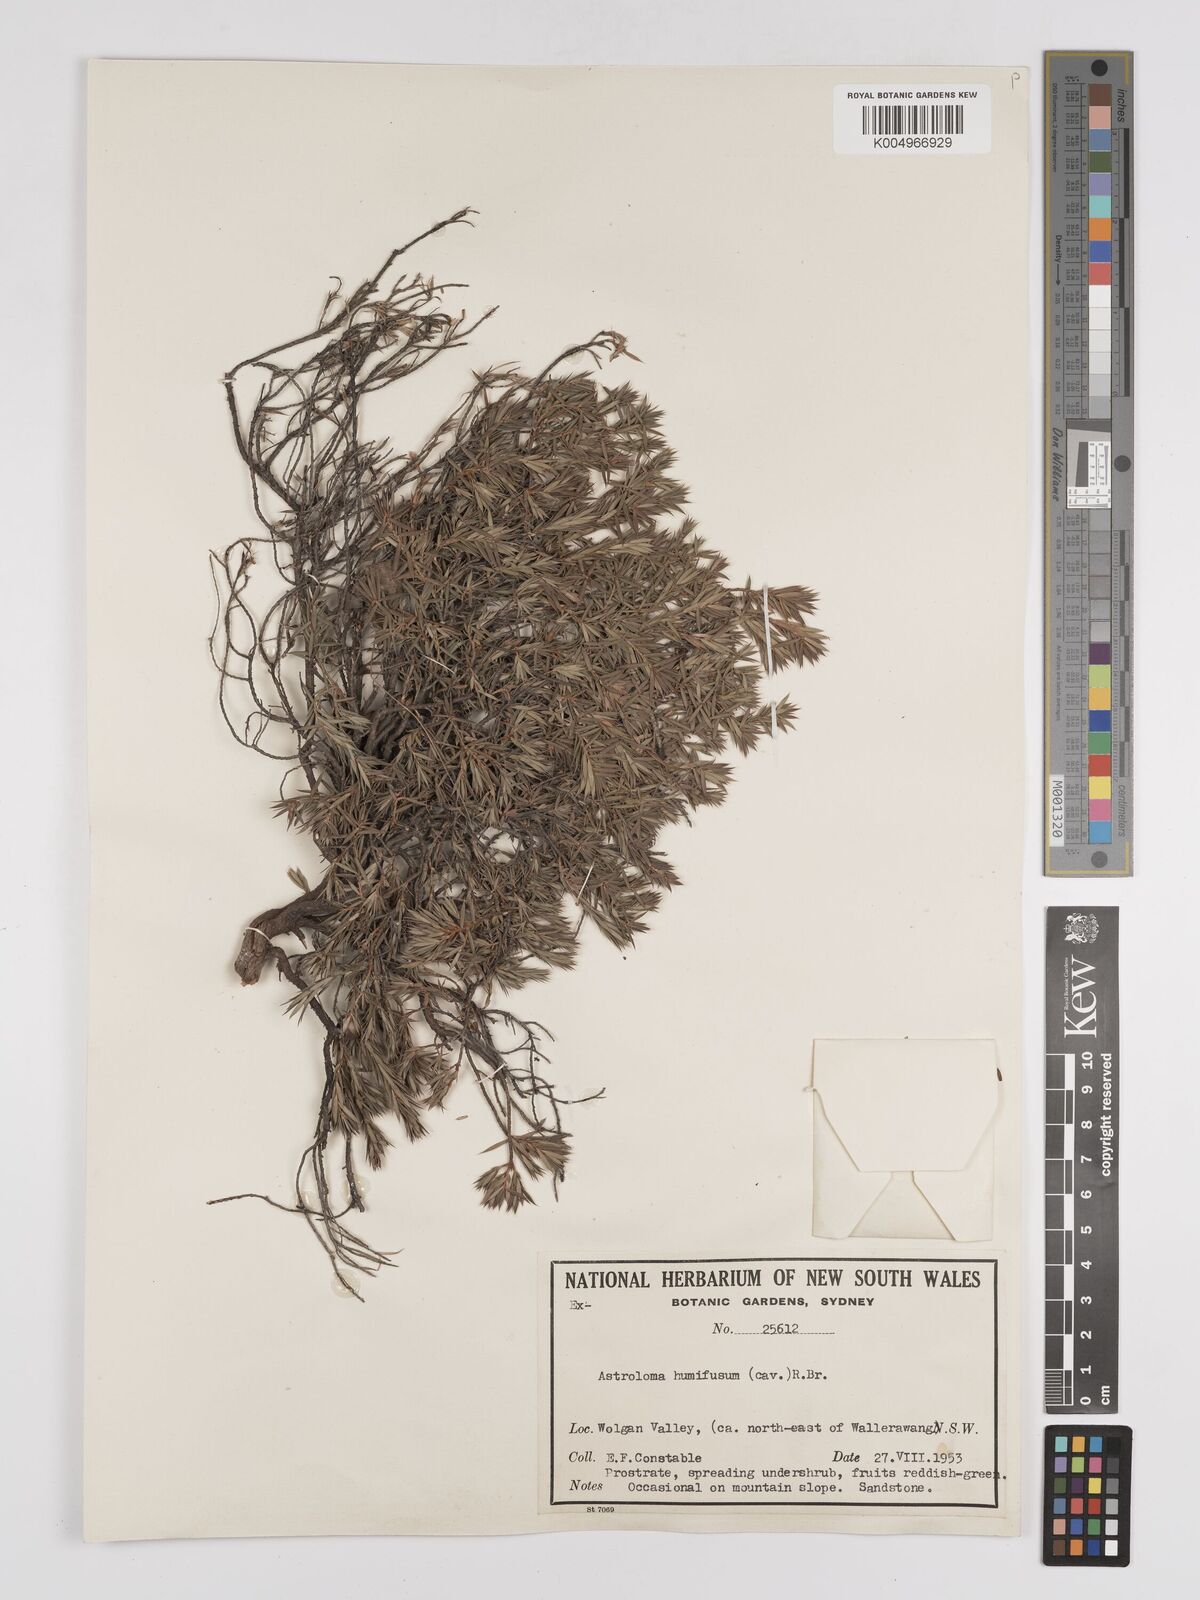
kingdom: Plantae
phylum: Tracheophyta
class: Magnoliopsida
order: Ericales
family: Ericaceae
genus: Styphelia
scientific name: Styphelia humifusa
